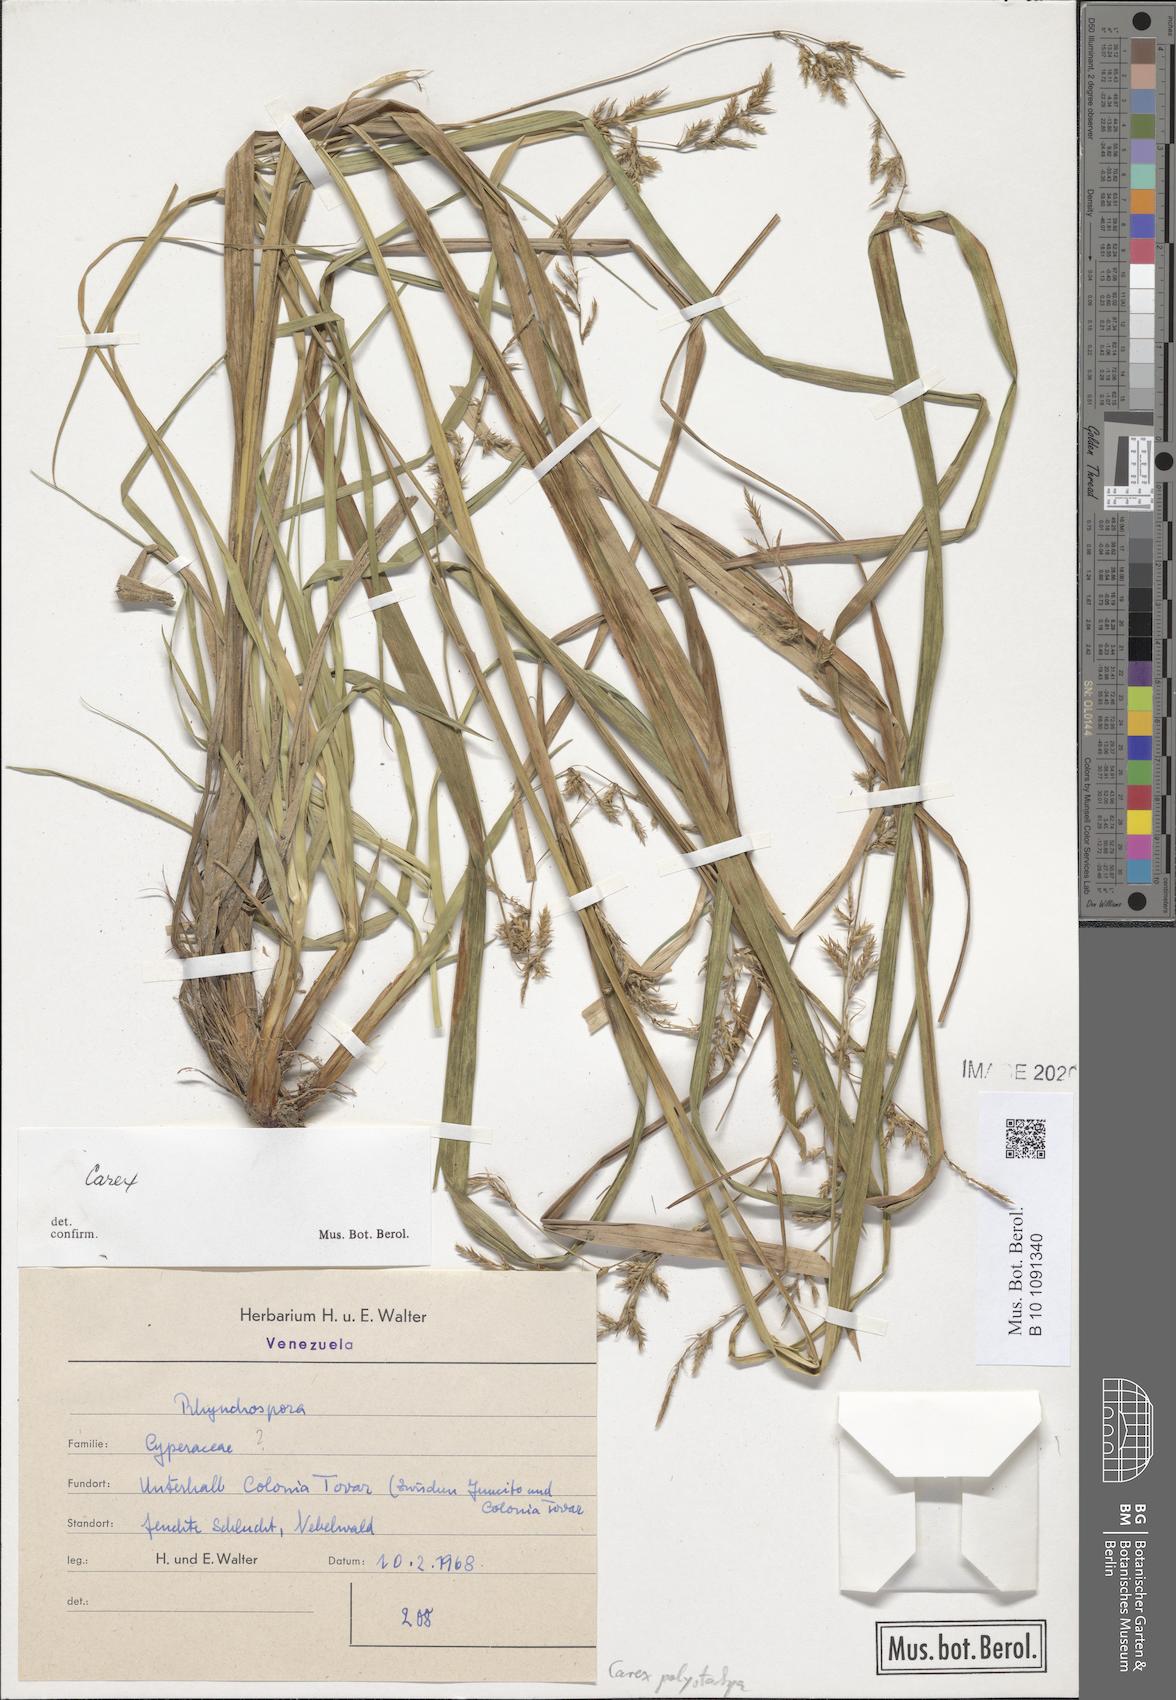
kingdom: Plantae
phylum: Tracheophyta
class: Liliopsida
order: Poales
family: Cyperaceae
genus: Carex
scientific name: Carex polystachya
